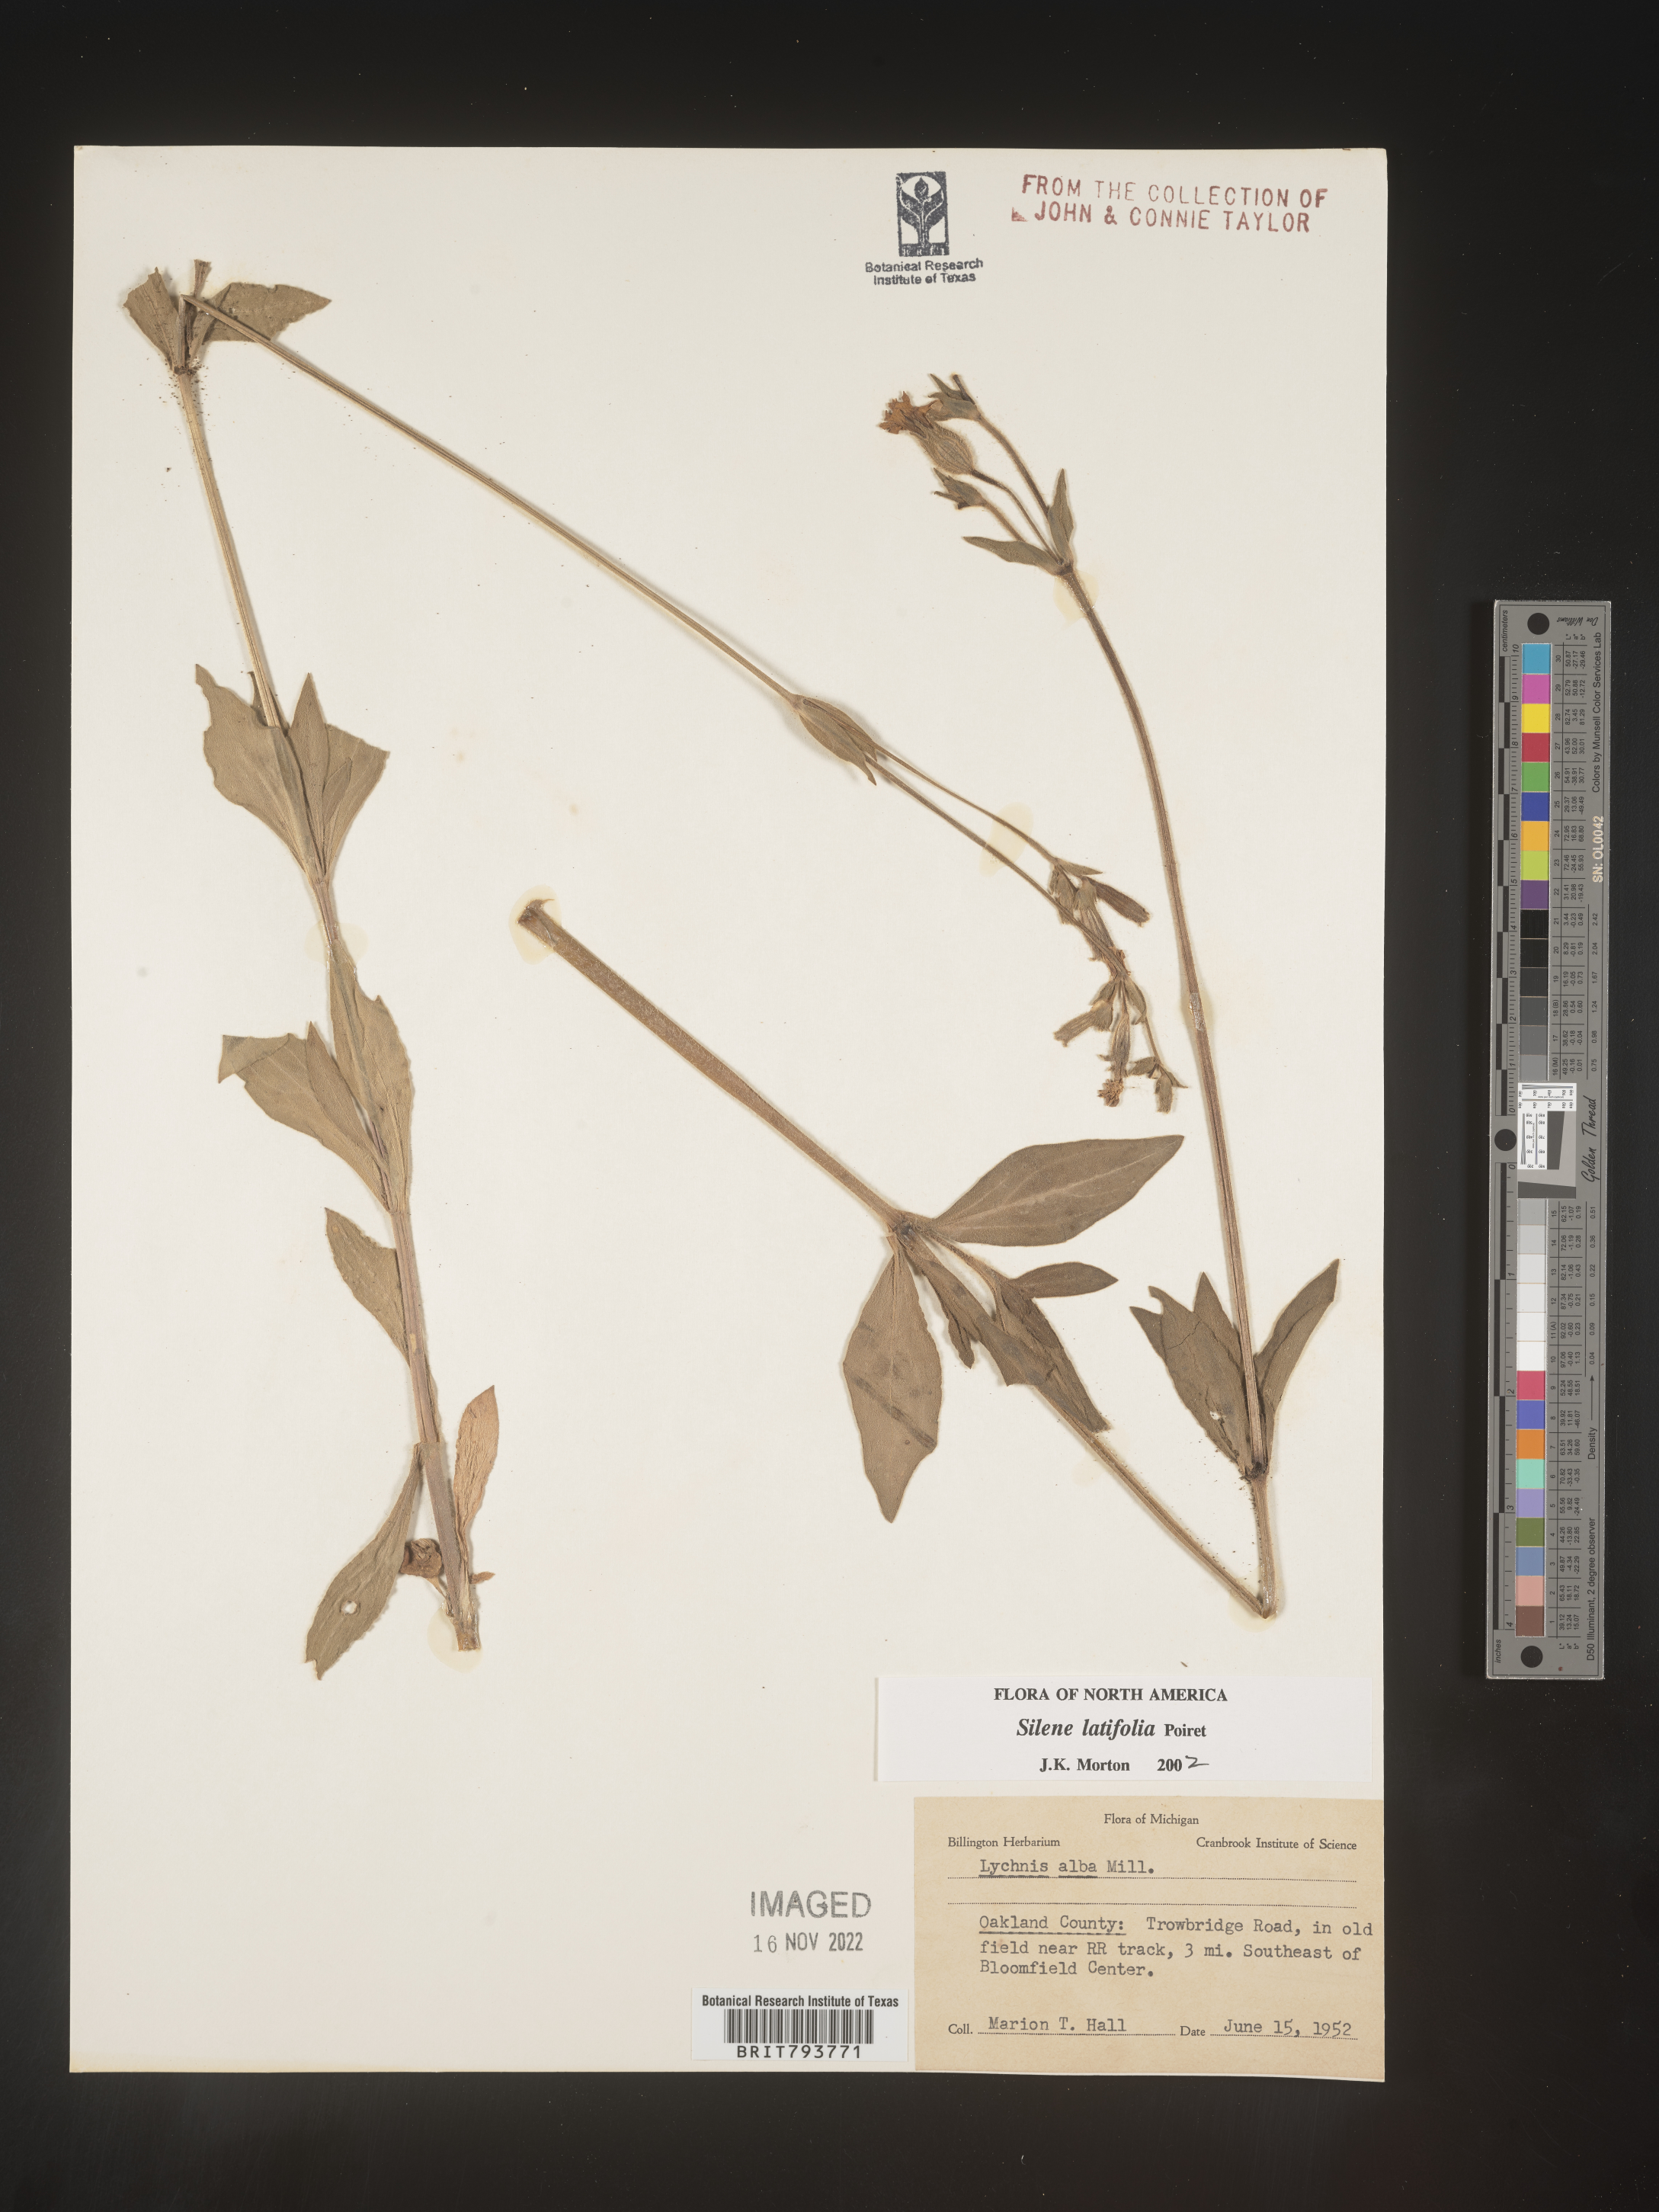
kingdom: Plantae
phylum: Tracheophyta
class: Magnoliopsida
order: Caryophyllales
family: Caryophyllaceae
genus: Silene
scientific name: Silene latifolia
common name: White campion
